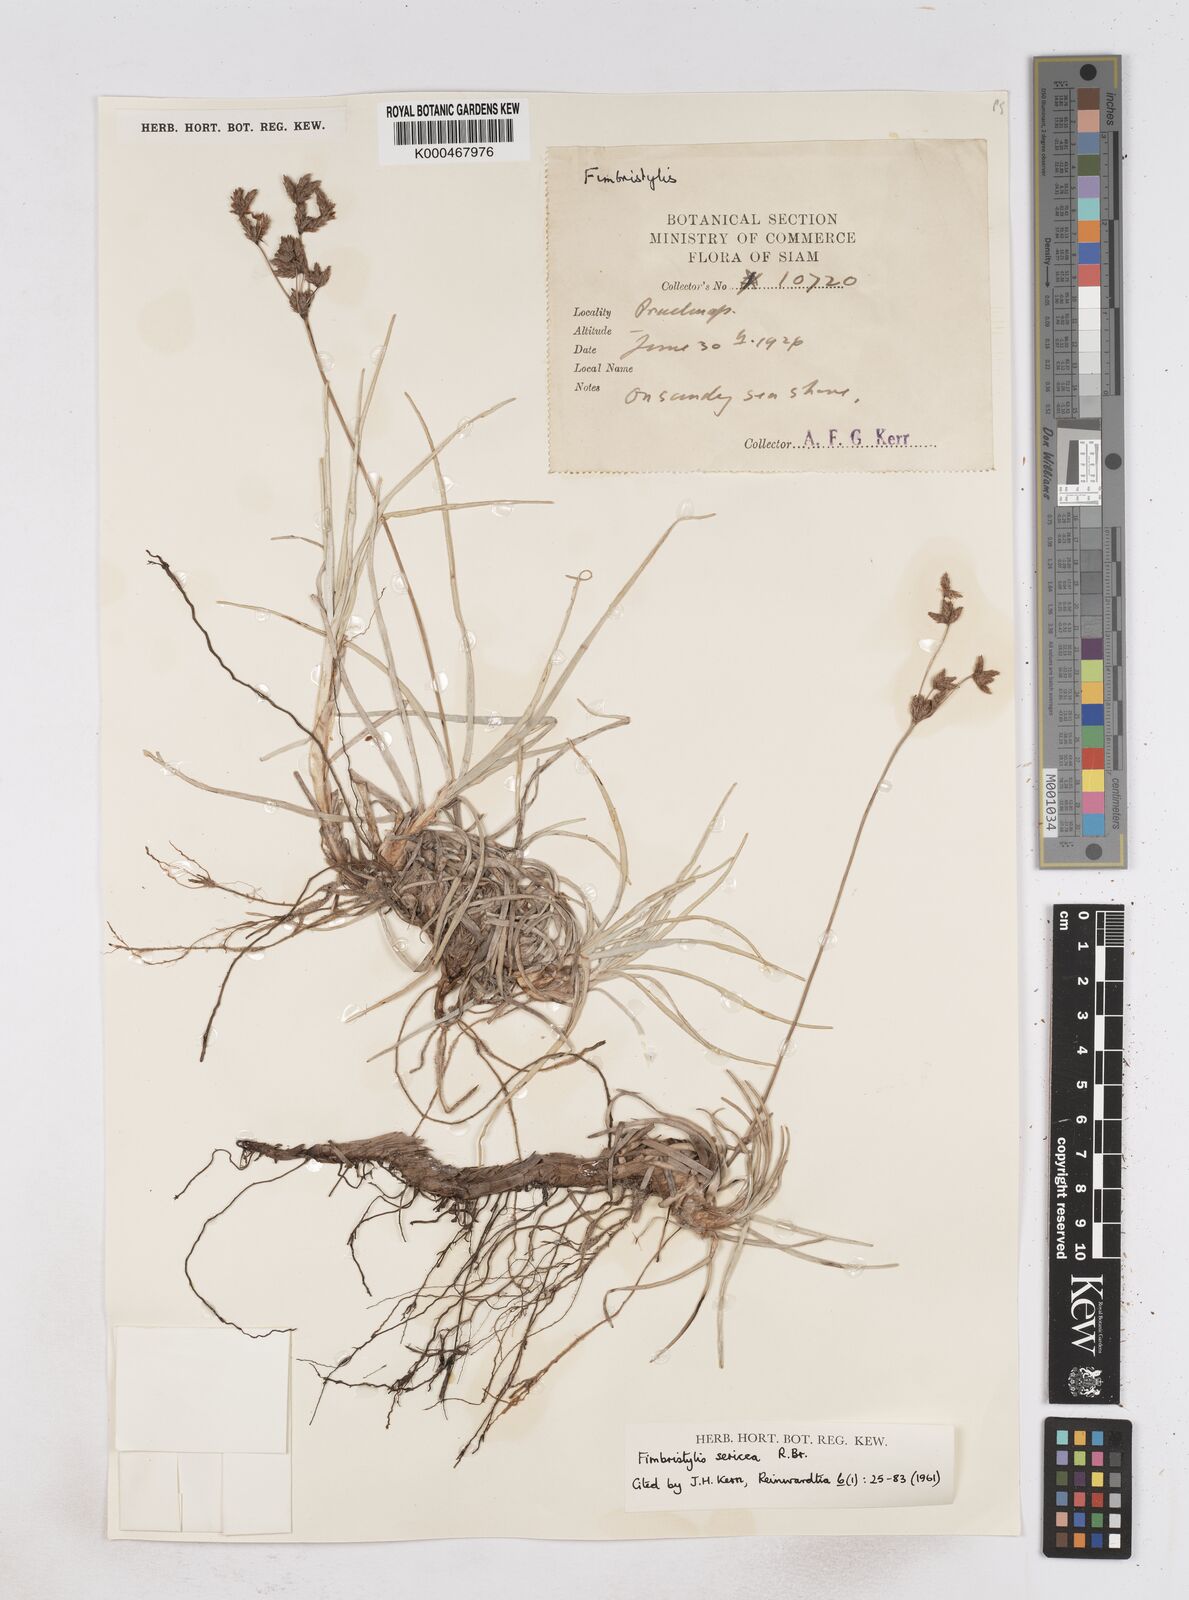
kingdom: Plantae
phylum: Tracheophyta
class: Liliopsida
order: Poales
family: Cyperaceae
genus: Fimbristylis
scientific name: Fimbristylis sericea
